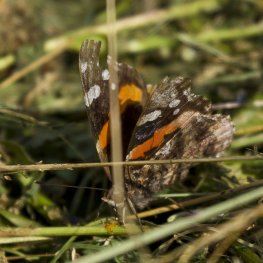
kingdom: Animalia
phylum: Arthropoda
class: Insecta
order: Lepidoptera
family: Nymphalidae
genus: Vanessa
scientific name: Vanessa atalanta
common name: Red Admiral
